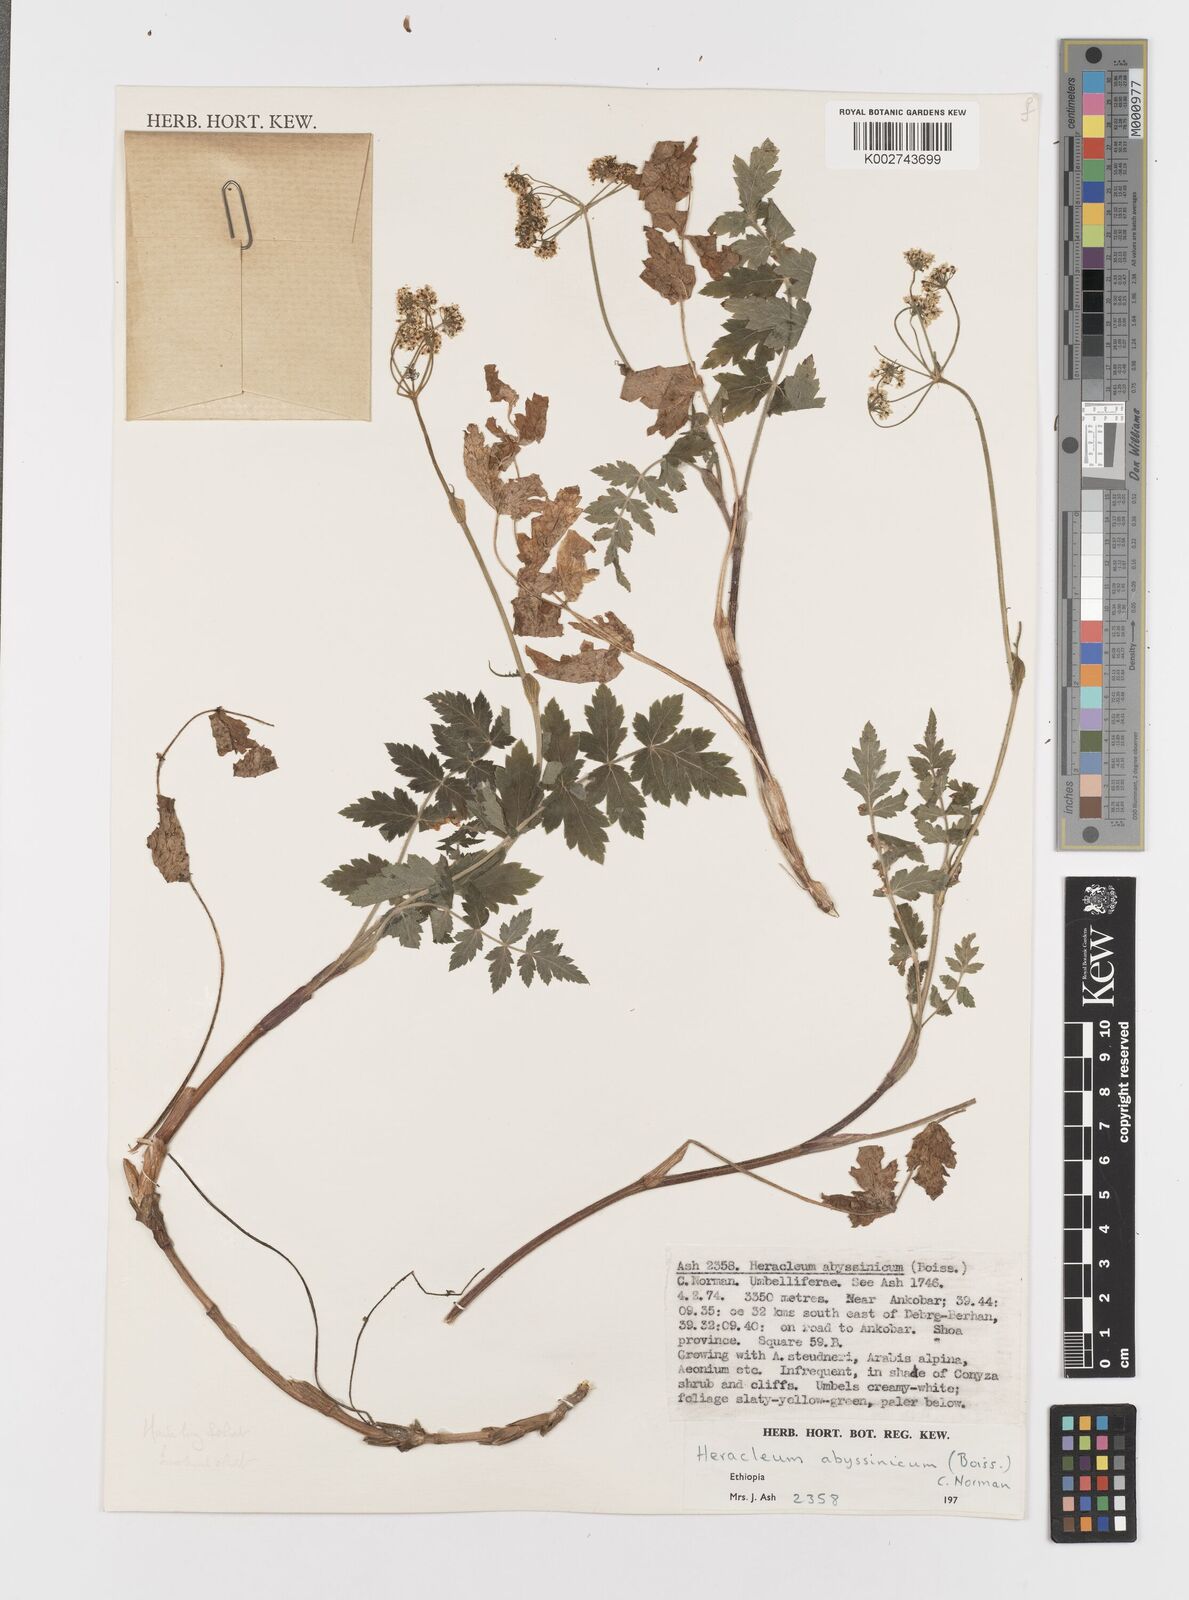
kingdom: Plantae
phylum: Tracheophyta
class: Magnoliopsida
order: Apiales
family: Apiaceae
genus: Heracleum
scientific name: Heracleum abyssinicum
